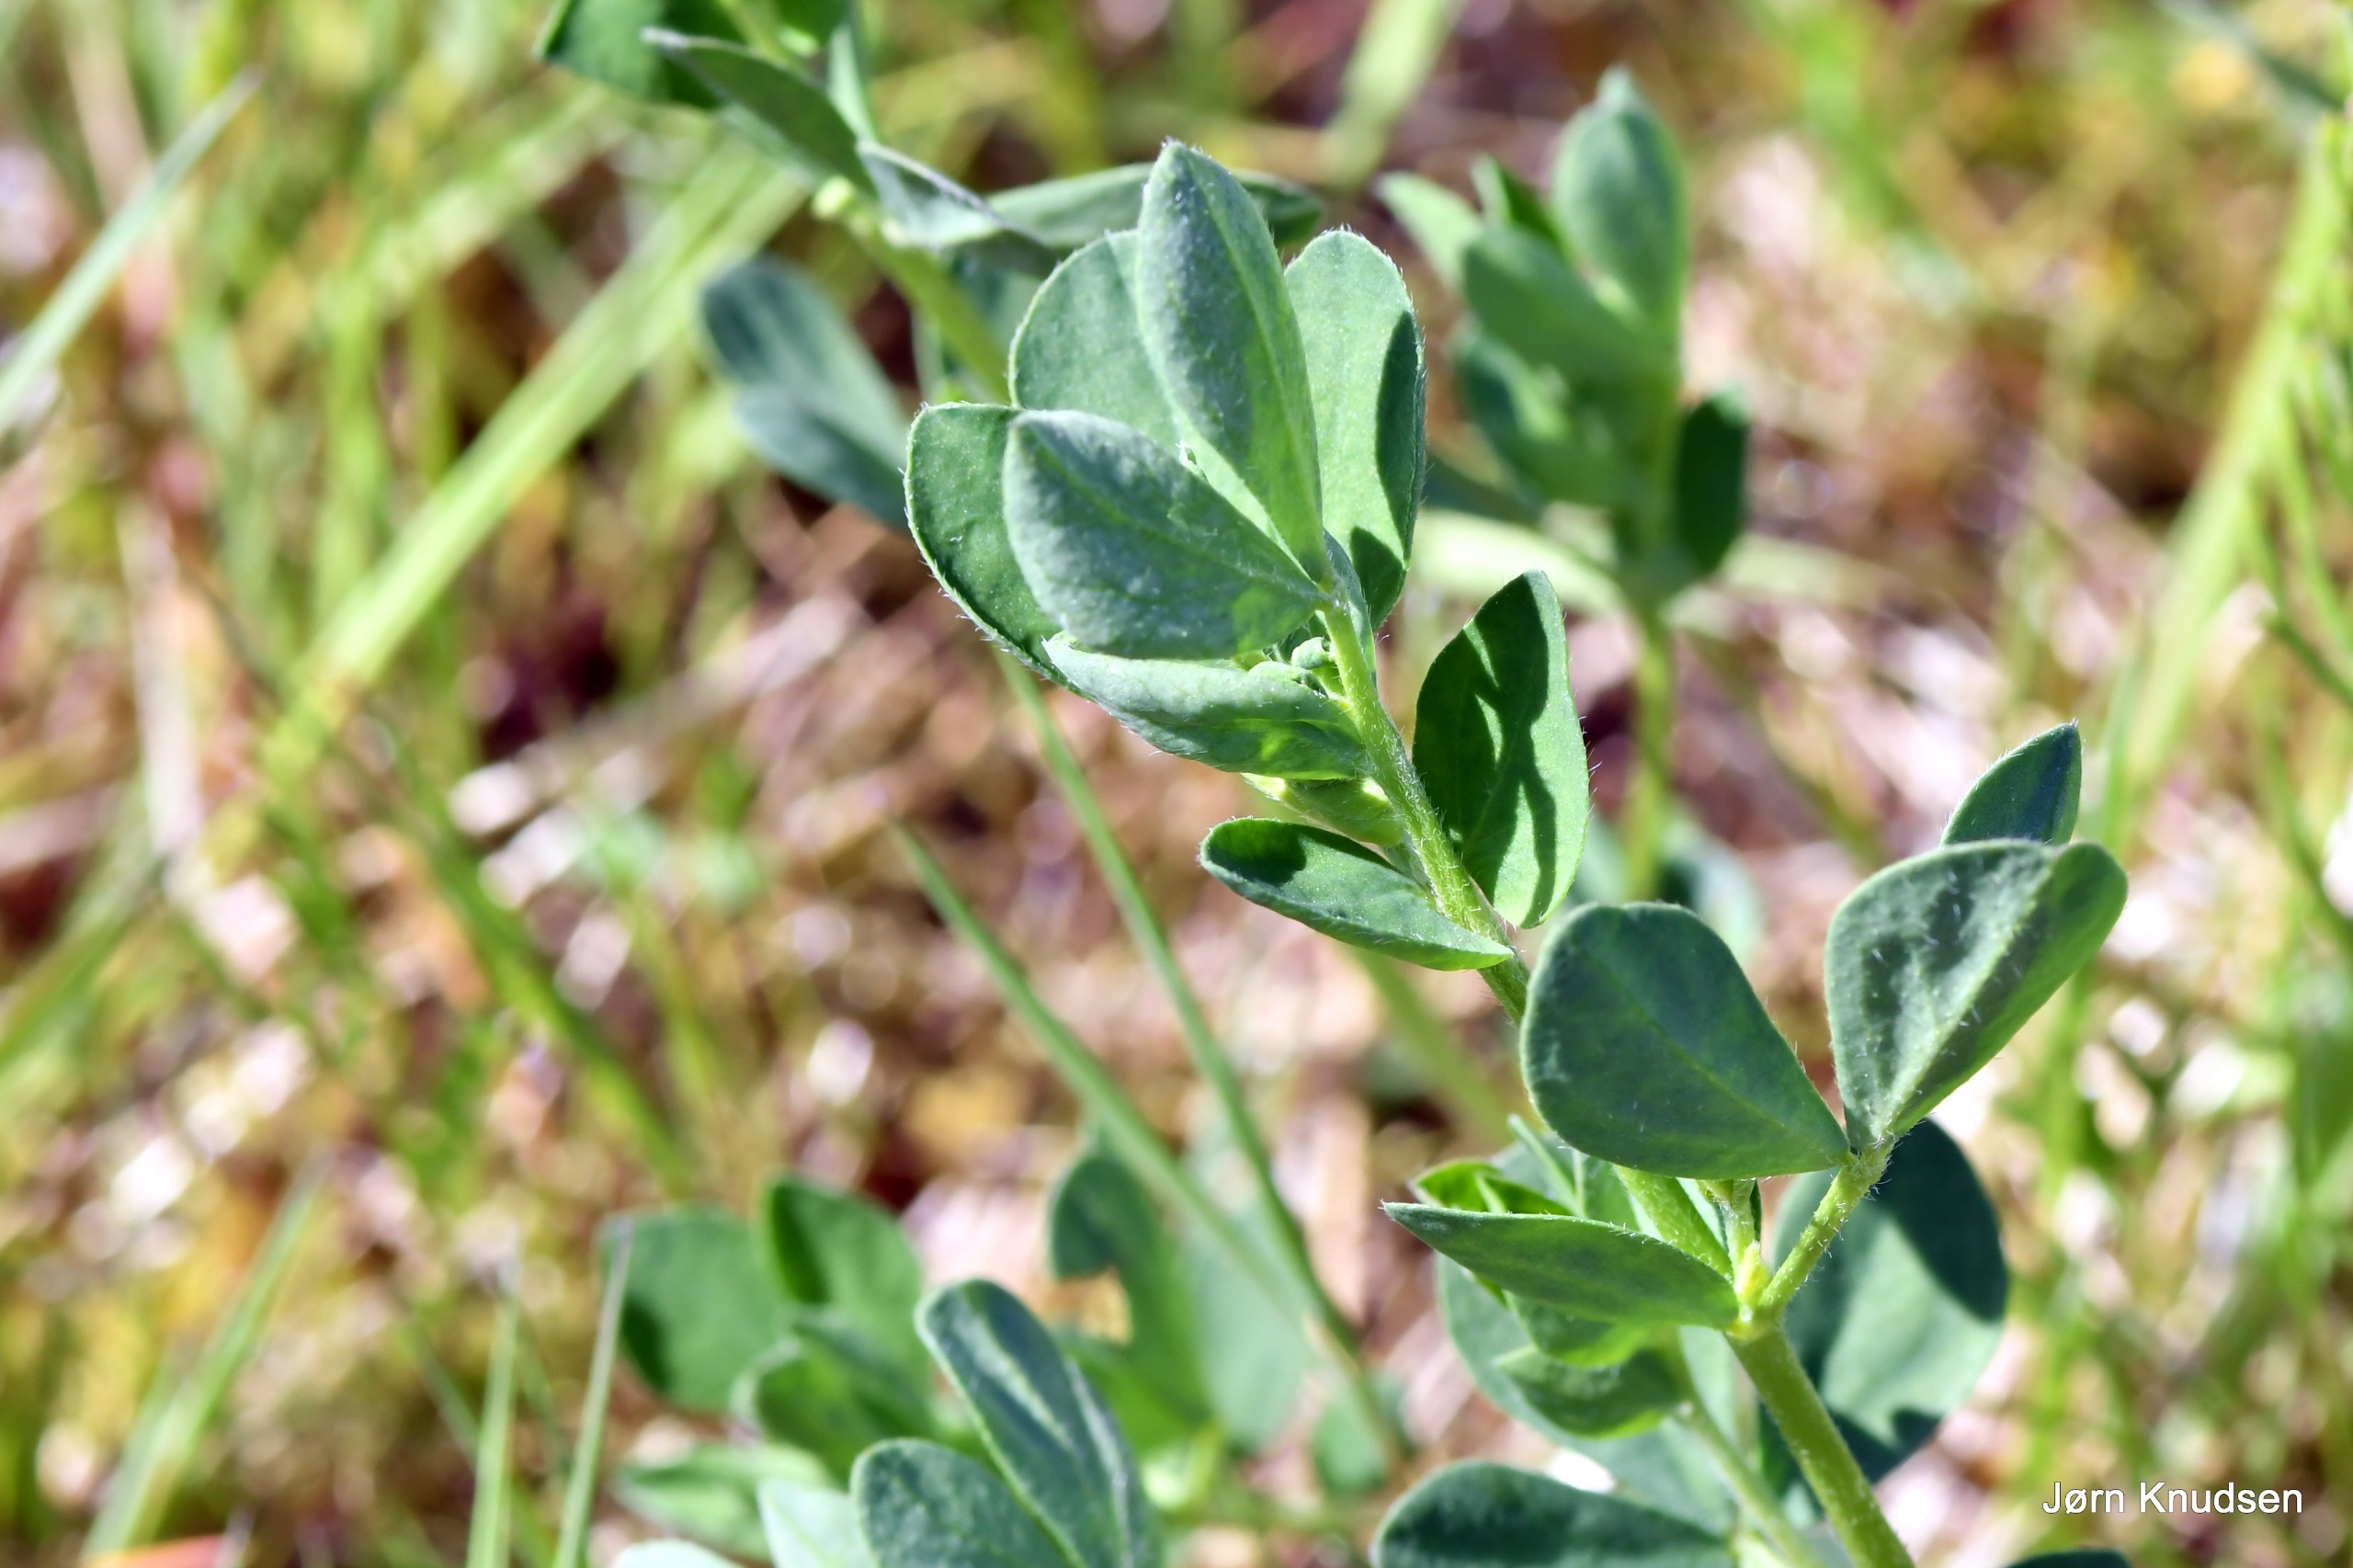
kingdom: Plantae
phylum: Tracheophyta
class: Magnoliopsida
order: Fabales
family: Fabaceae
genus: Lotus
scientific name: Lotus corniculatus
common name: Almindelig kællingetand
